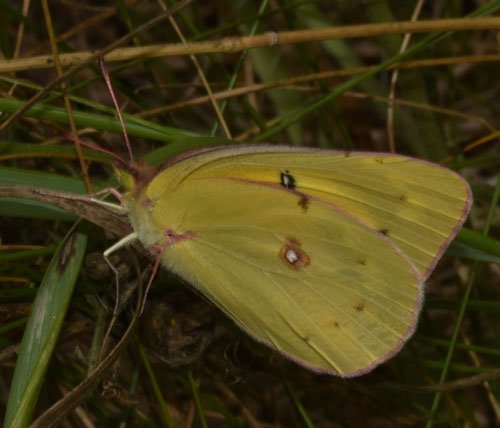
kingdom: Animalia
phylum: Arthropoda
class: Insecta
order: Lepidoptera
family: Pieridae
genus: Colias
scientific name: Colias philodice
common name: Clouded Sulphur
